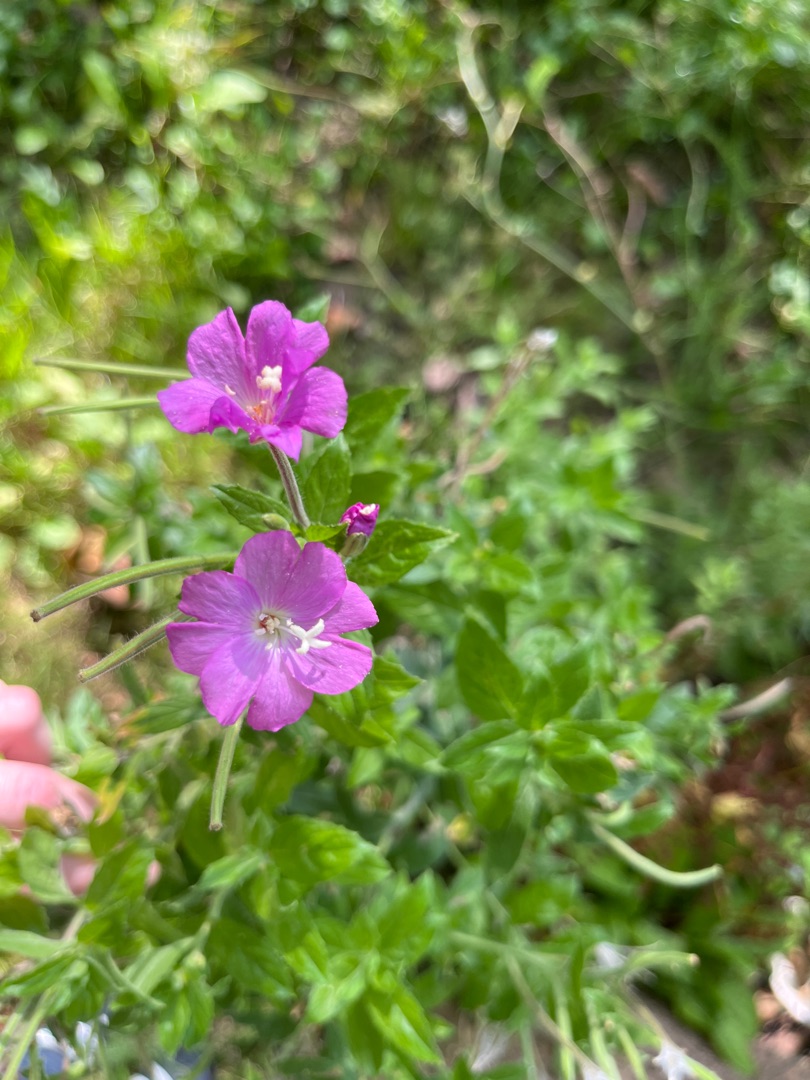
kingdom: Plantae
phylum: Tracheophyta
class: Magnoliopsida
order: Myrtales
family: Onagraceae
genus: Epilobium
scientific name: Epilobium hirsutum
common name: Lådden dueurt
